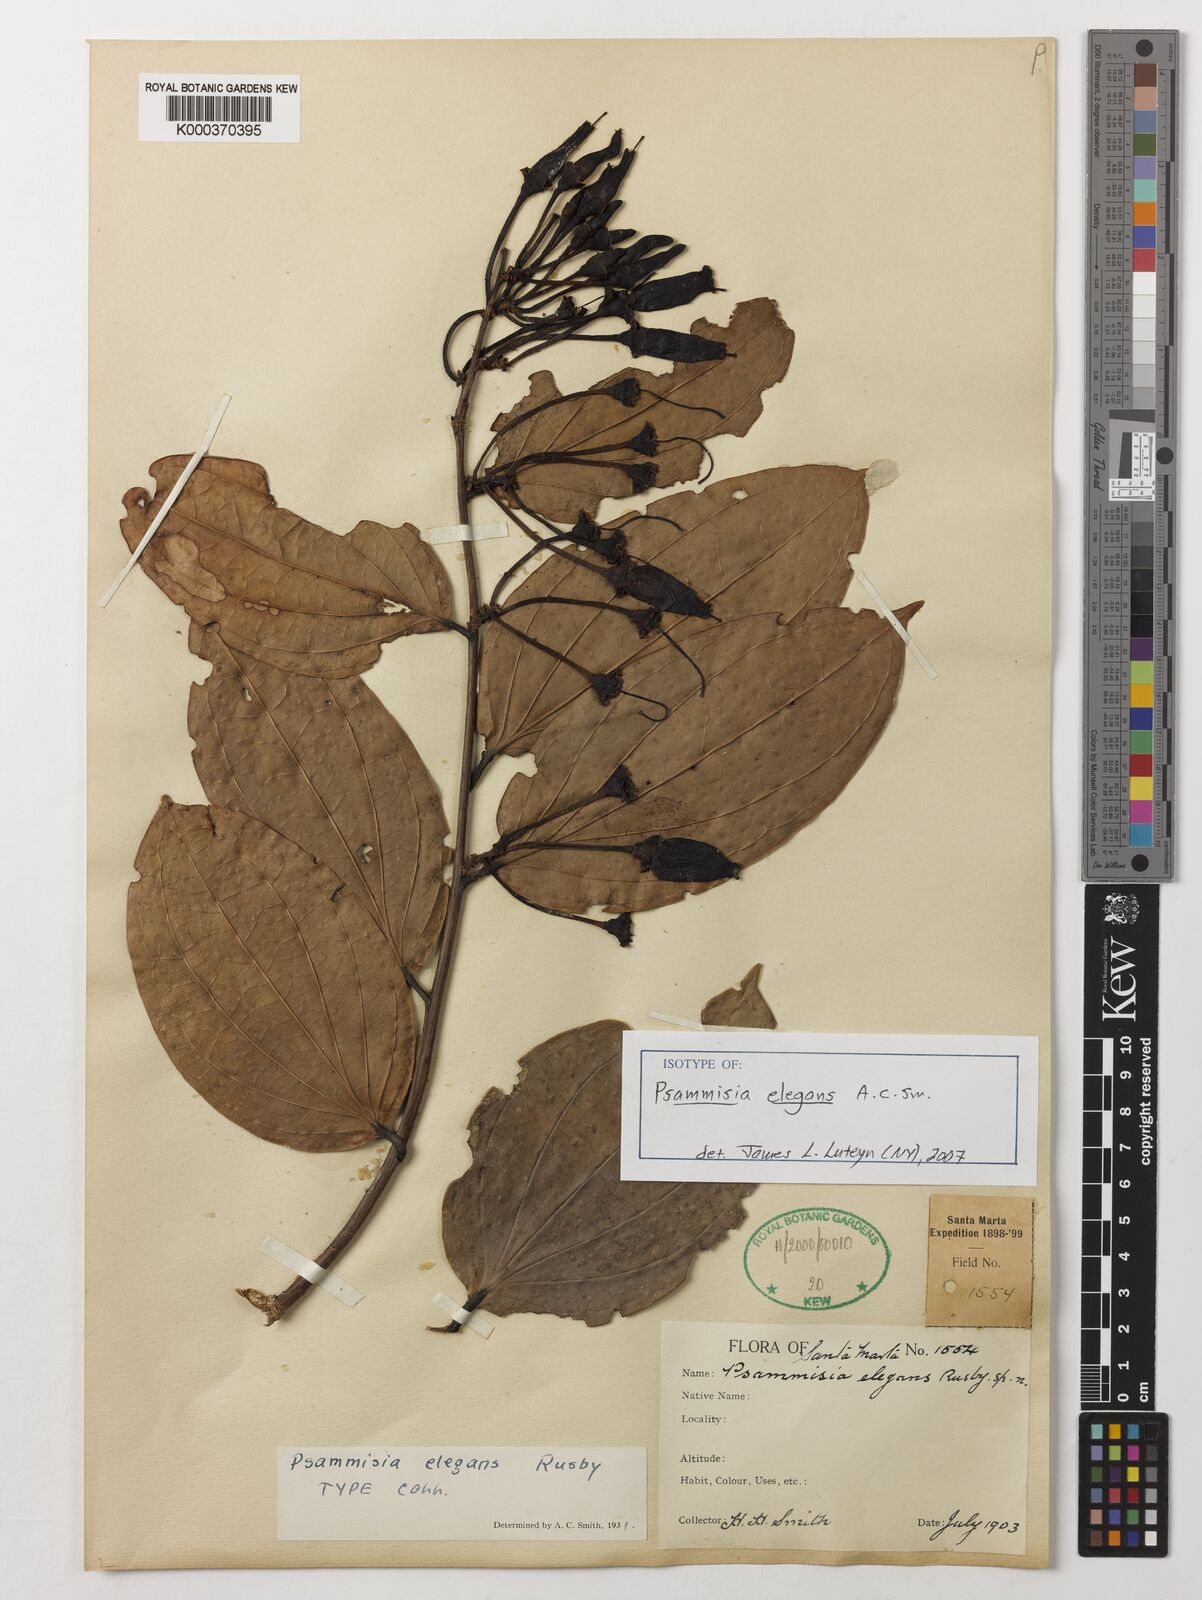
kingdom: Plantae
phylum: Tracheophyta
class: Magnoliopsida
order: Ericales
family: Ericaceae
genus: Psammisia
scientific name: Psammisia coarctata
